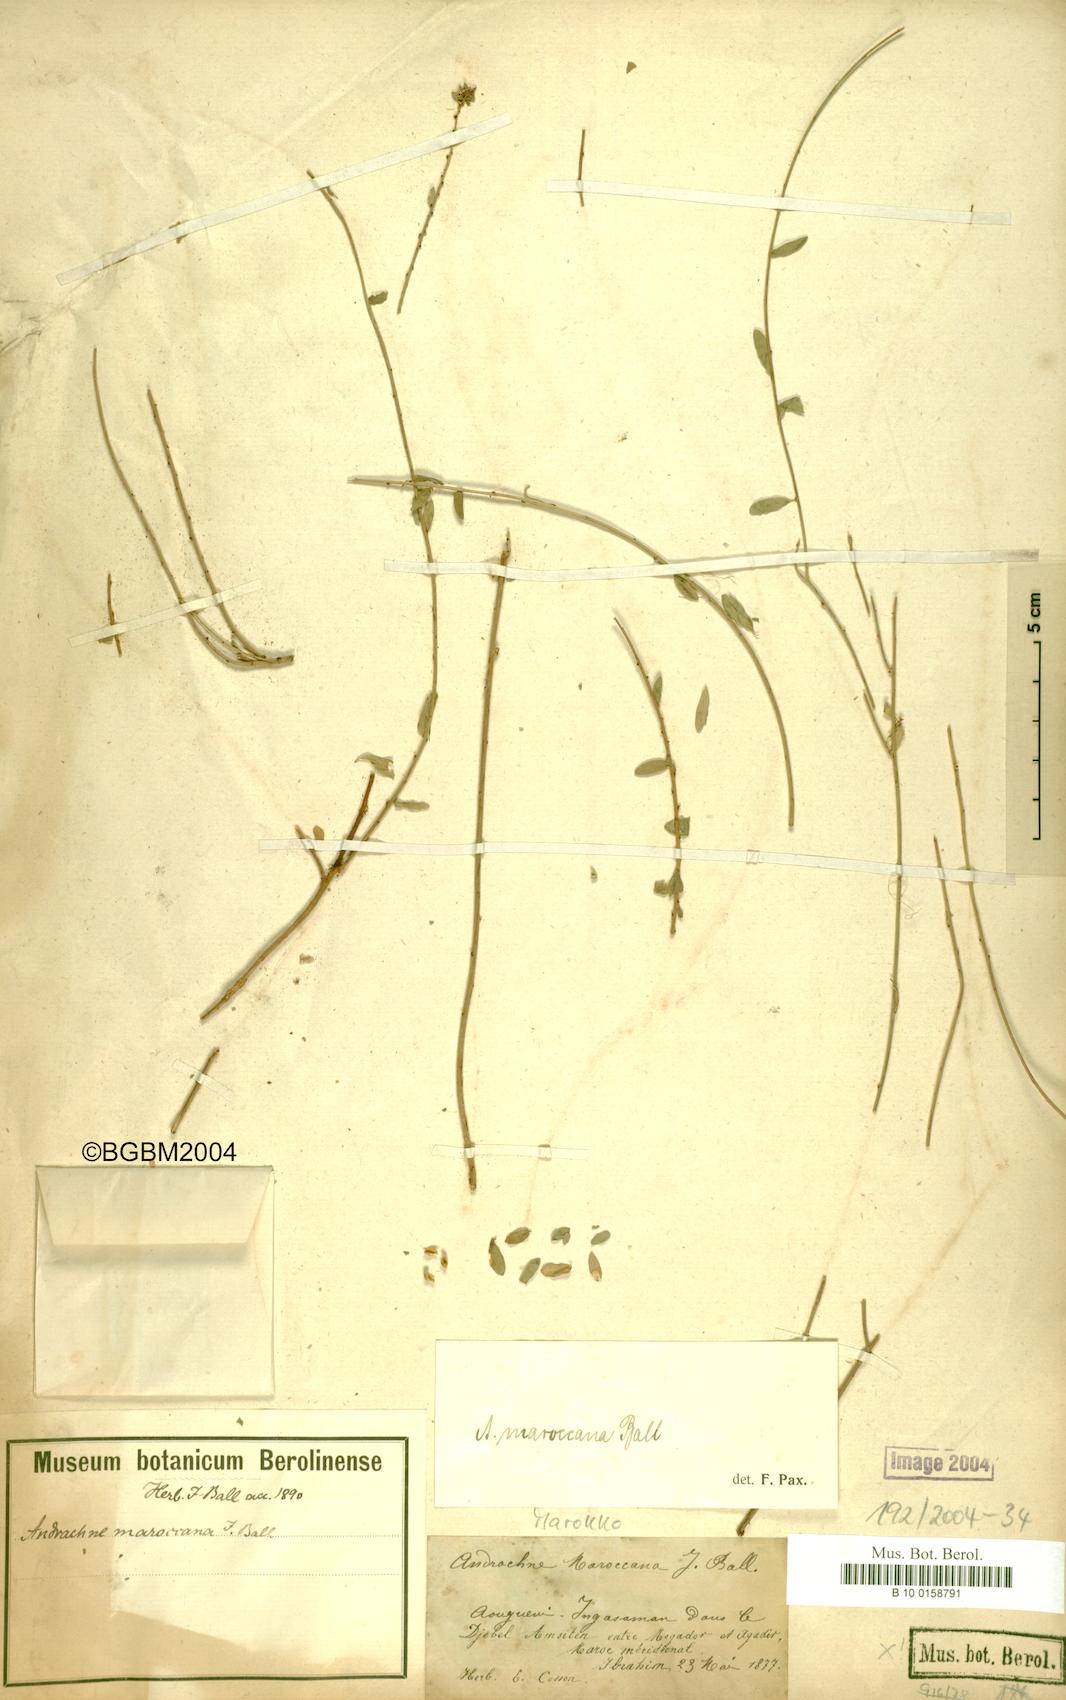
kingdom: Plantae
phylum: Tracheophyta
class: Magnoliopsida
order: Malpighiales
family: Phyllanthaceae
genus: Andrachne
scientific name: Andrachne maroccana
